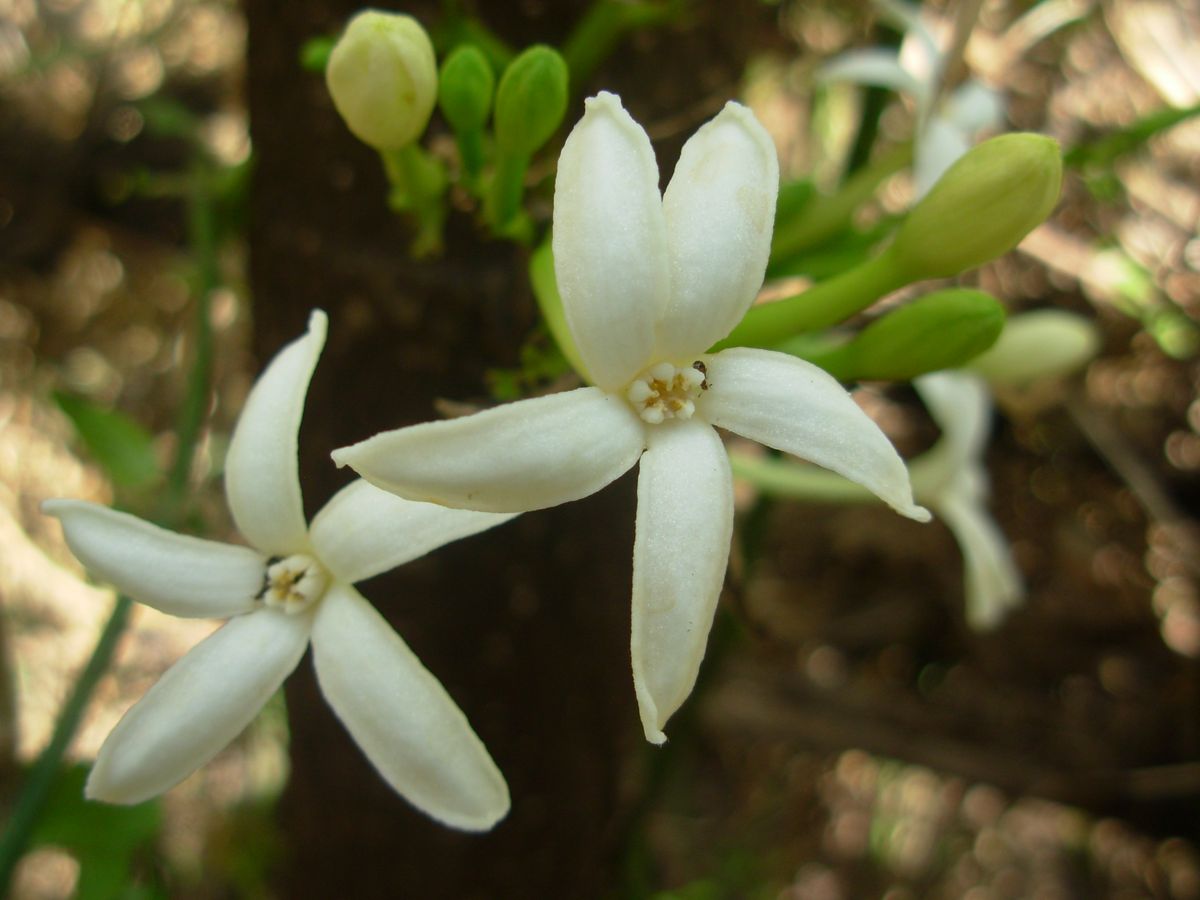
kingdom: Plantae
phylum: Tracheophyta
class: Magnoliopsida
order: Brassicales
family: Caricaceae
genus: Vasconcellea
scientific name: Vasconcellea cauliflora
